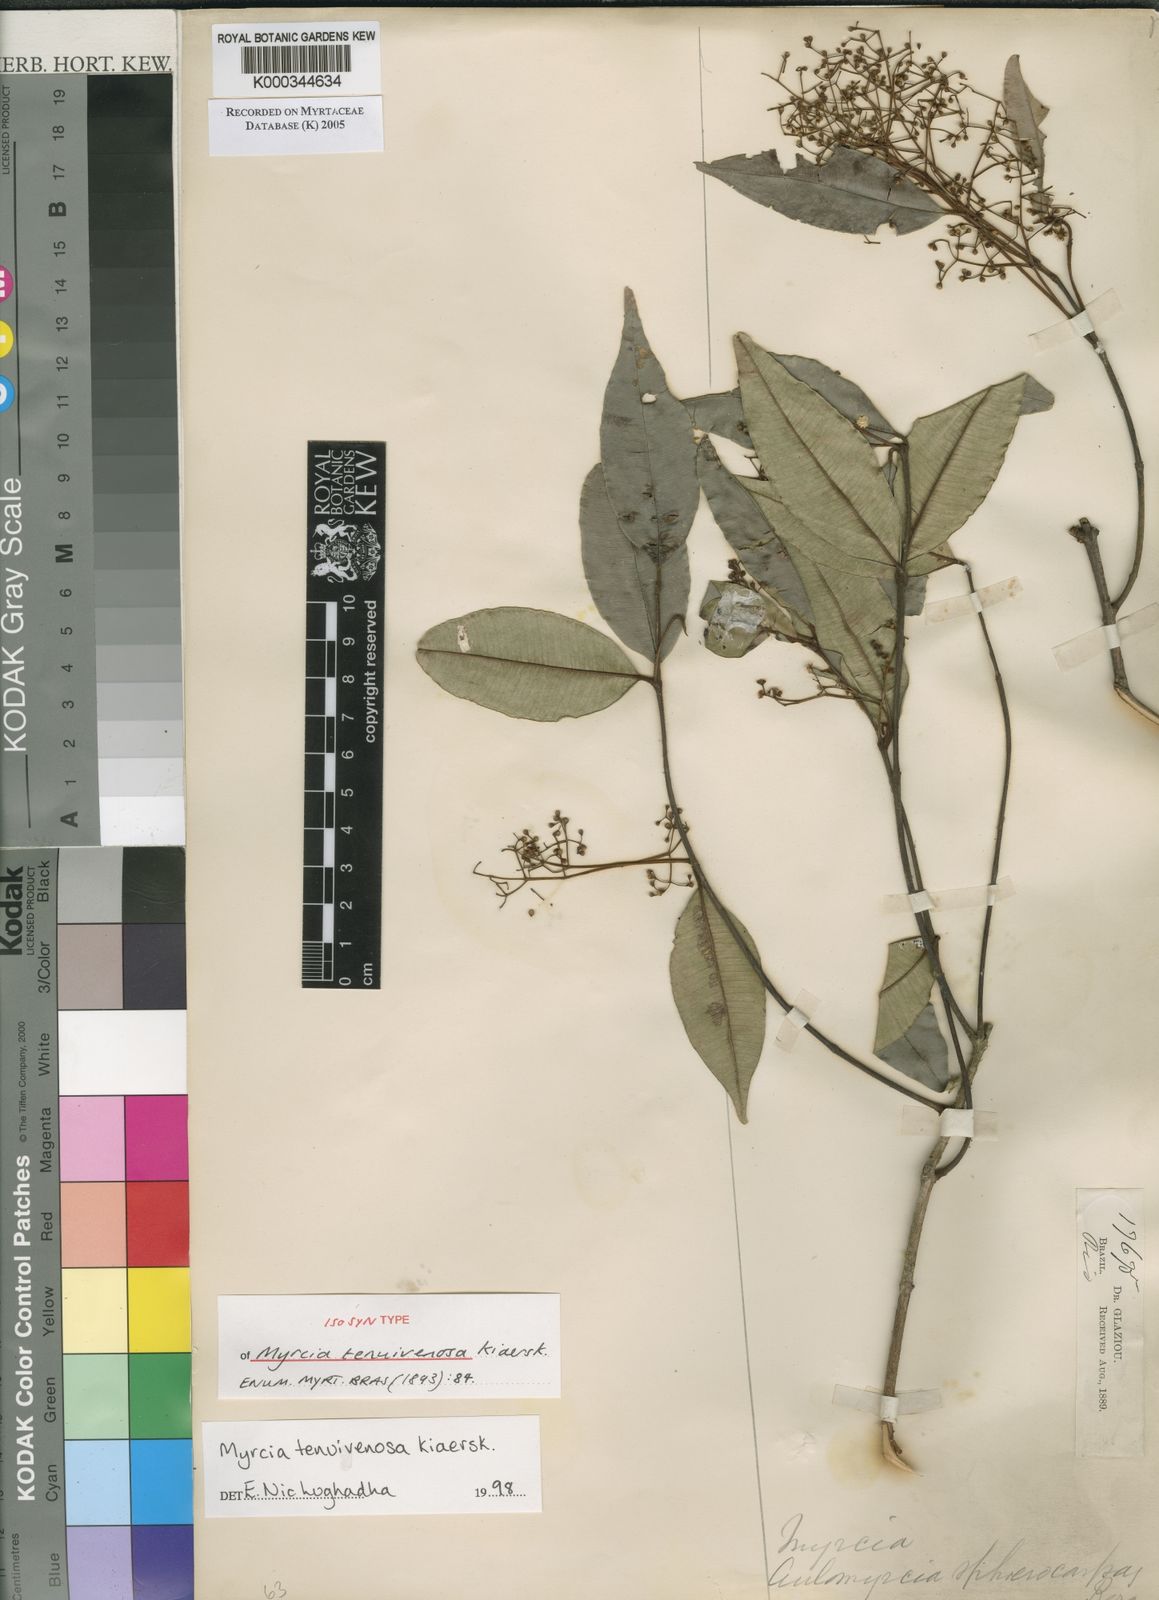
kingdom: Plantae
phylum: Tracheophyta
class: Magnoliopsida
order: Myrtales
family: Myrtaceae
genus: Myrcia
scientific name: Myrcia tenuivenosa
